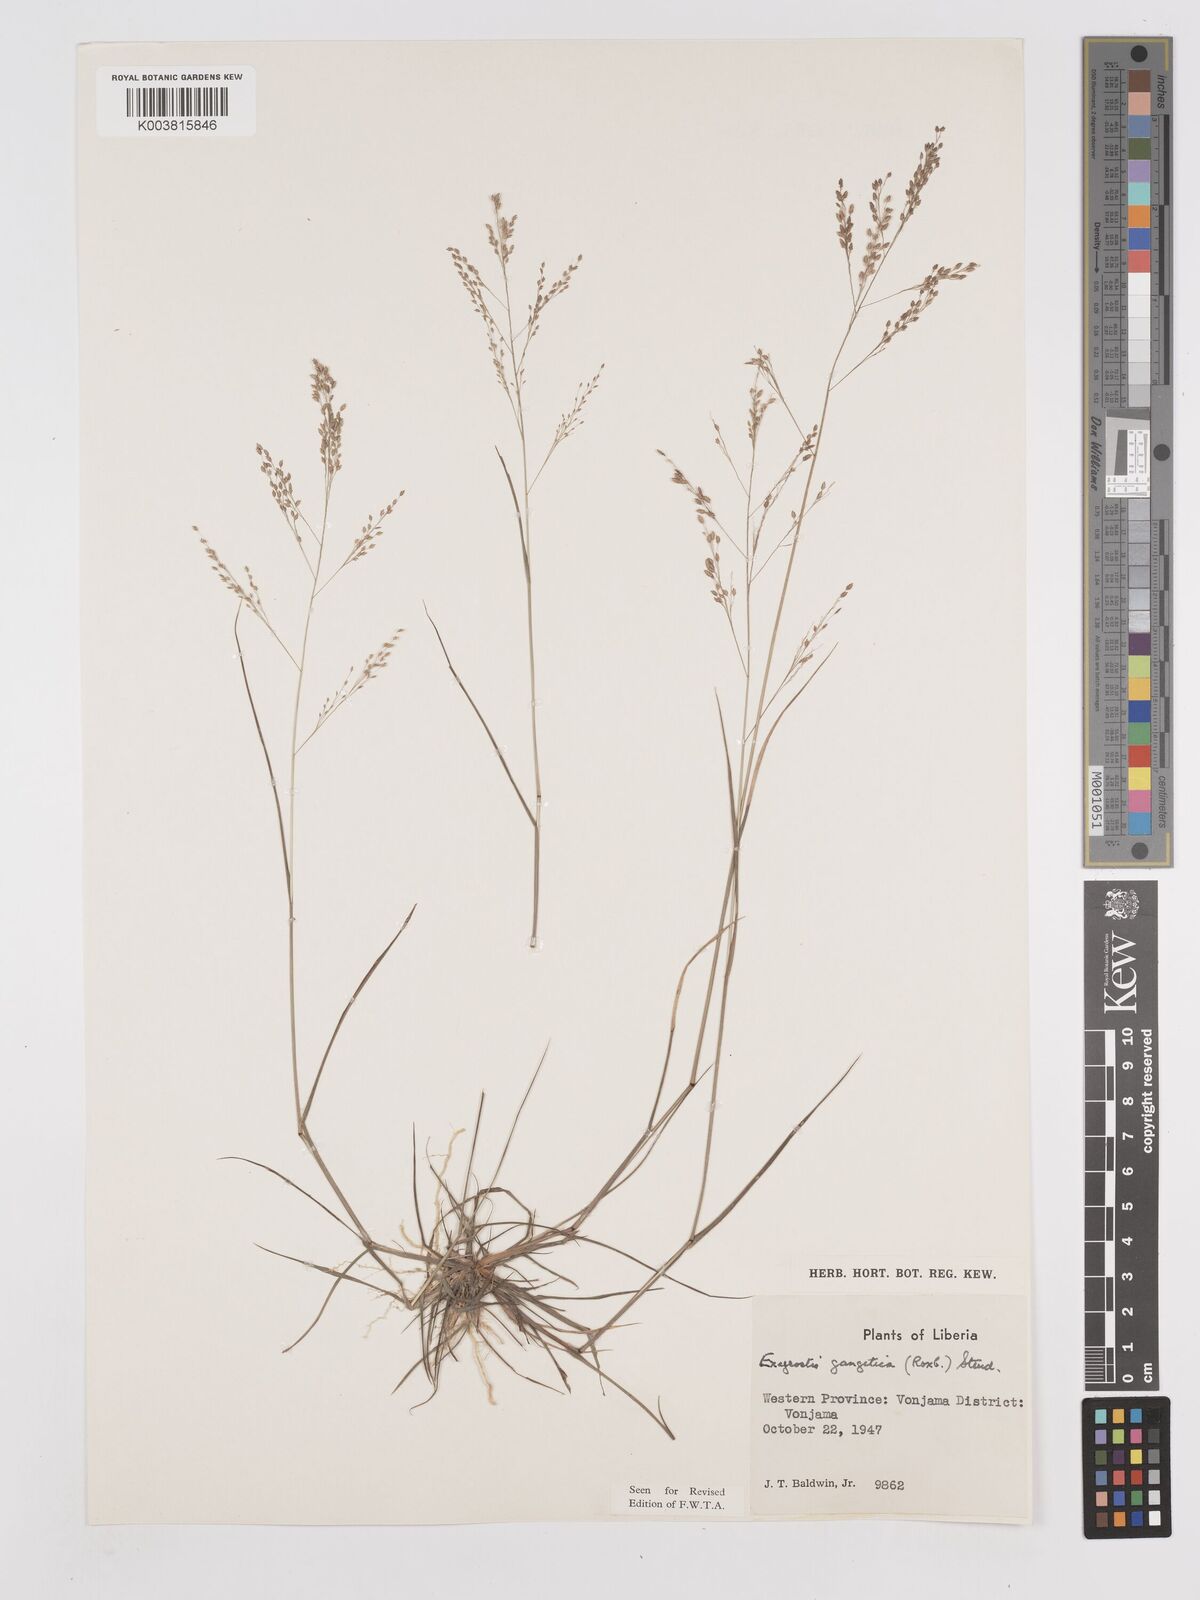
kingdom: Plantae
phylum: Tracheophyta
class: Liliopsida
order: Poales
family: Poaceae
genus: Eragrostis
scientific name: Eragrostis gangetica
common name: Slimflower lovegrass
